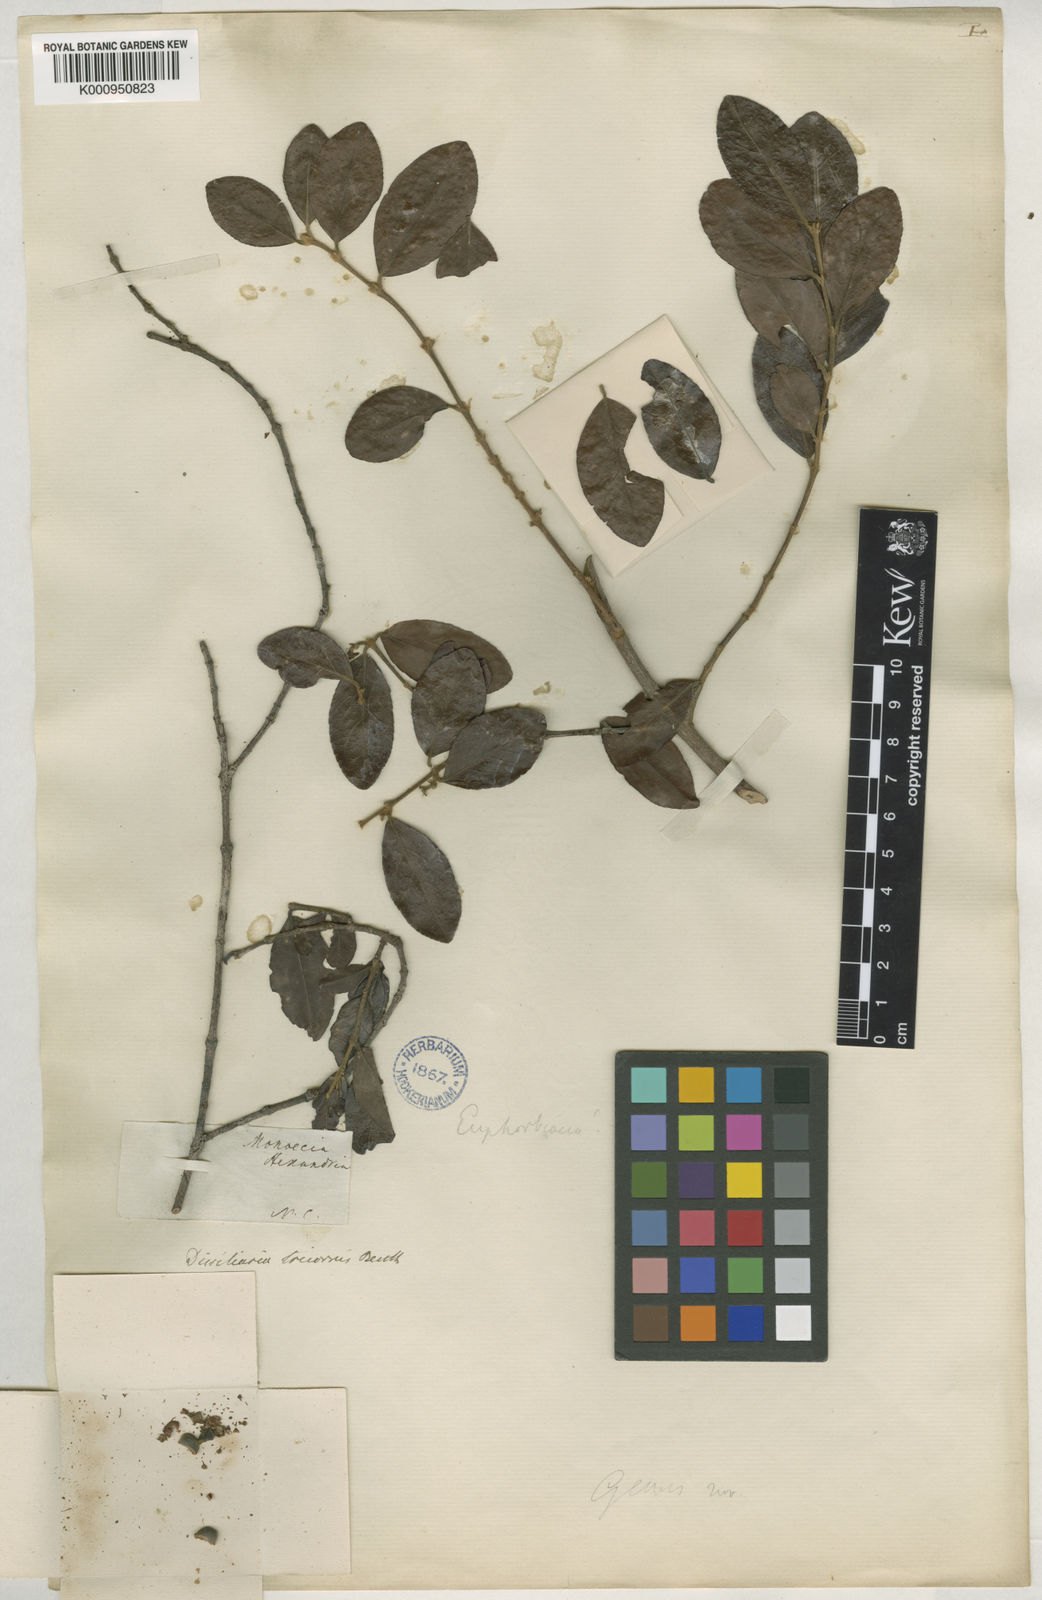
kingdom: Plantae
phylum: Tracheophyta
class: Magnoliopsida
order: Malpighiales
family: Picrodendraceae
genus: Choriceras
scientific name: Choriceras tricorne
